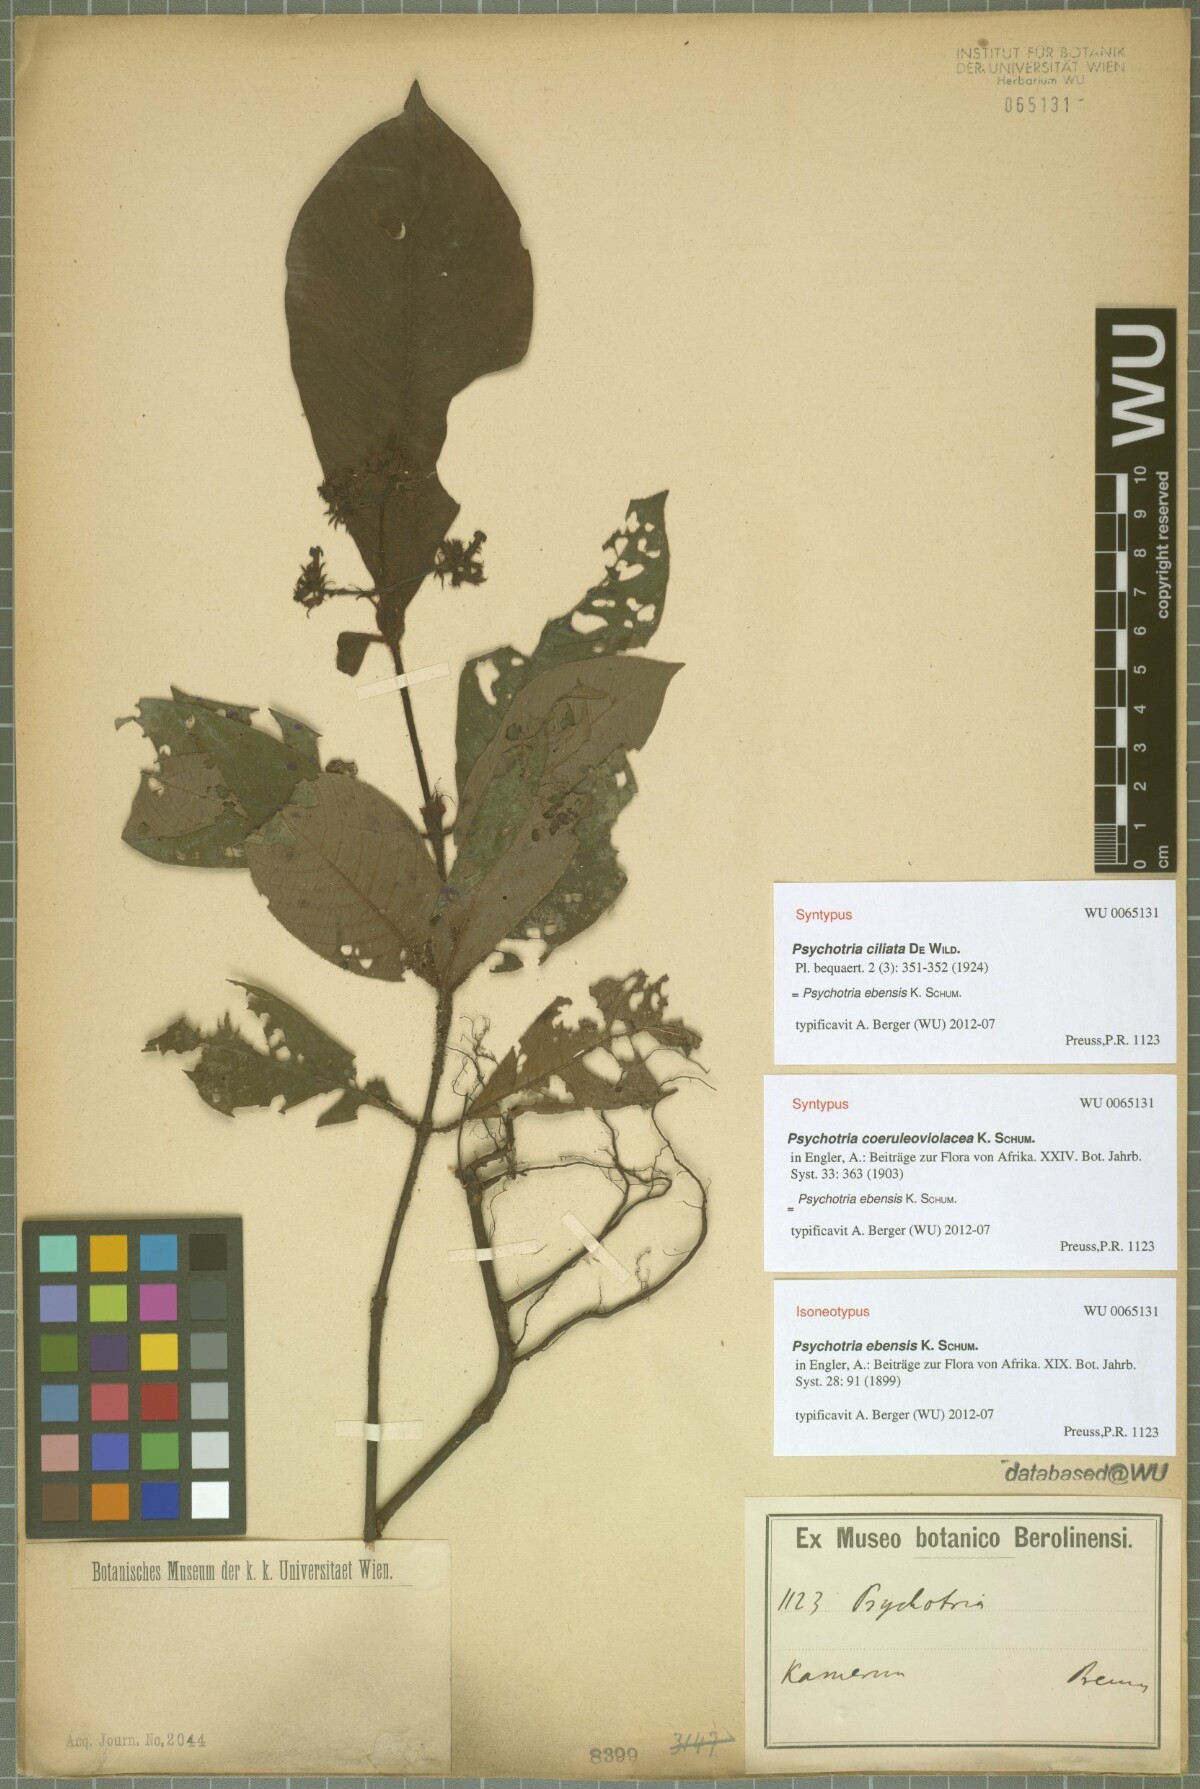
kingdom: Plantae
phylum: Tracheophyta
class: Magnoliopsida
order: Gentianales
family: Rubiaceae
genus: Psychotria
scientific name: Psychotria ebensis
